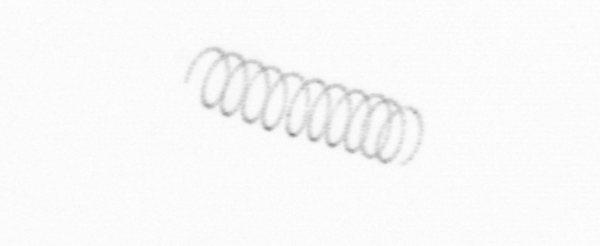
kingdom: Chromista
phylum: Ochrophyta
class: Bacillariophyceae
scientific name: Bacillariophyceae
